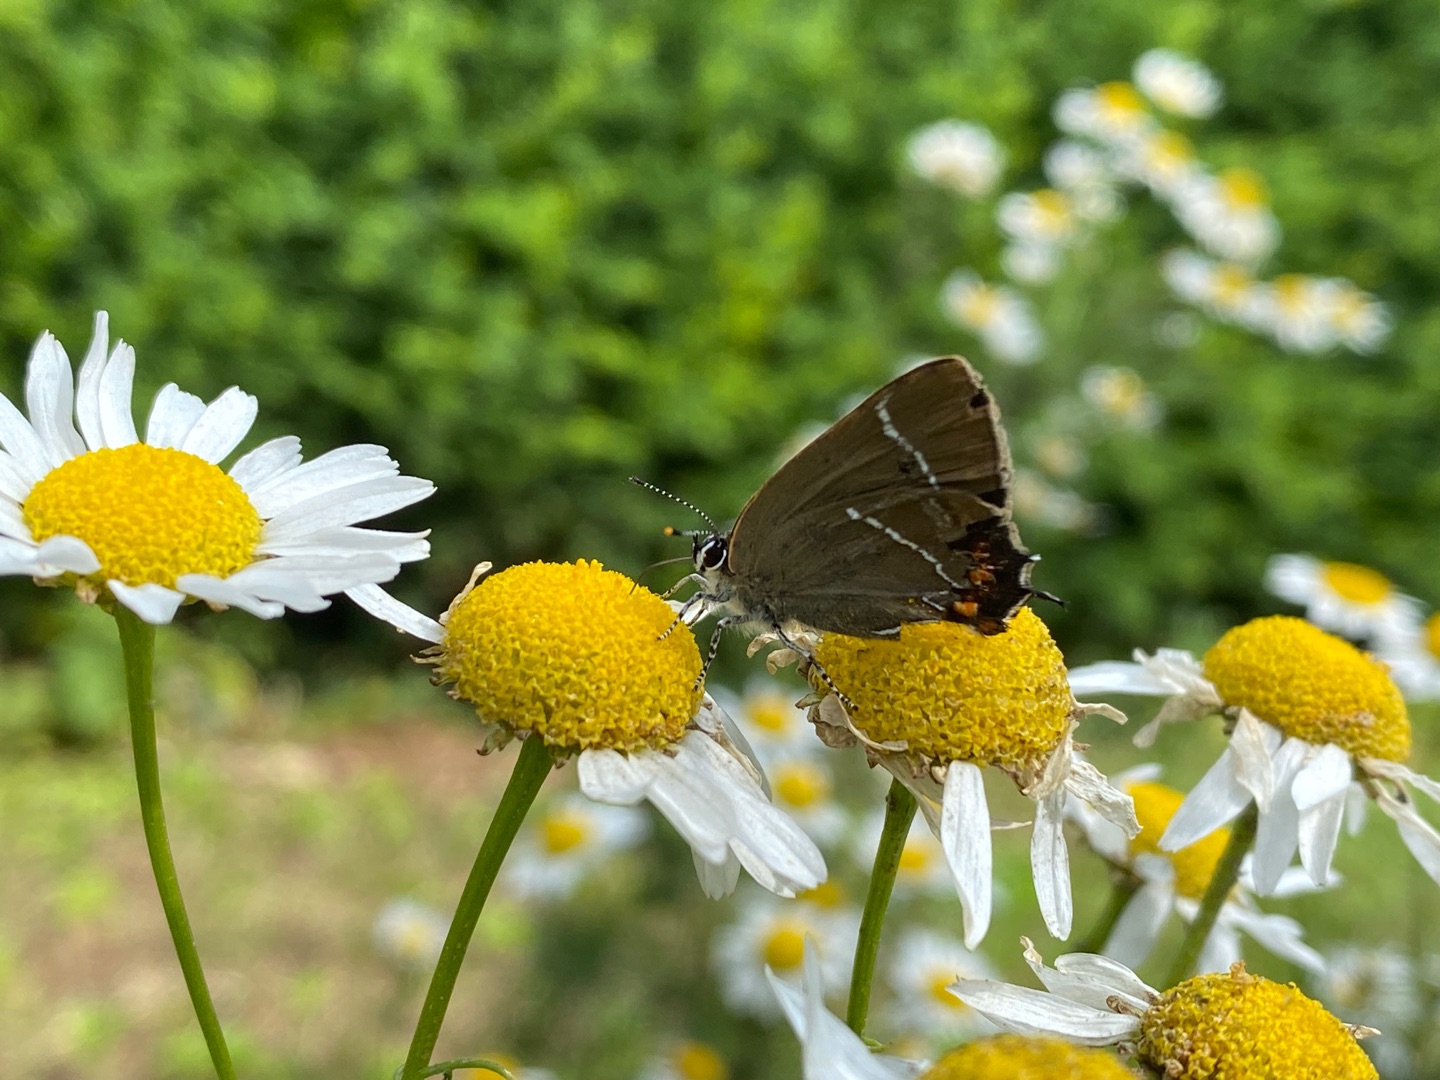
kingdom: Animalia
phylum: Arthropoda
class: Insecta
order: Lepidoptera
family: Lycaenidae
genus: Satyrium
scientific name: Satyrium w-album
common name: Det hvide W
